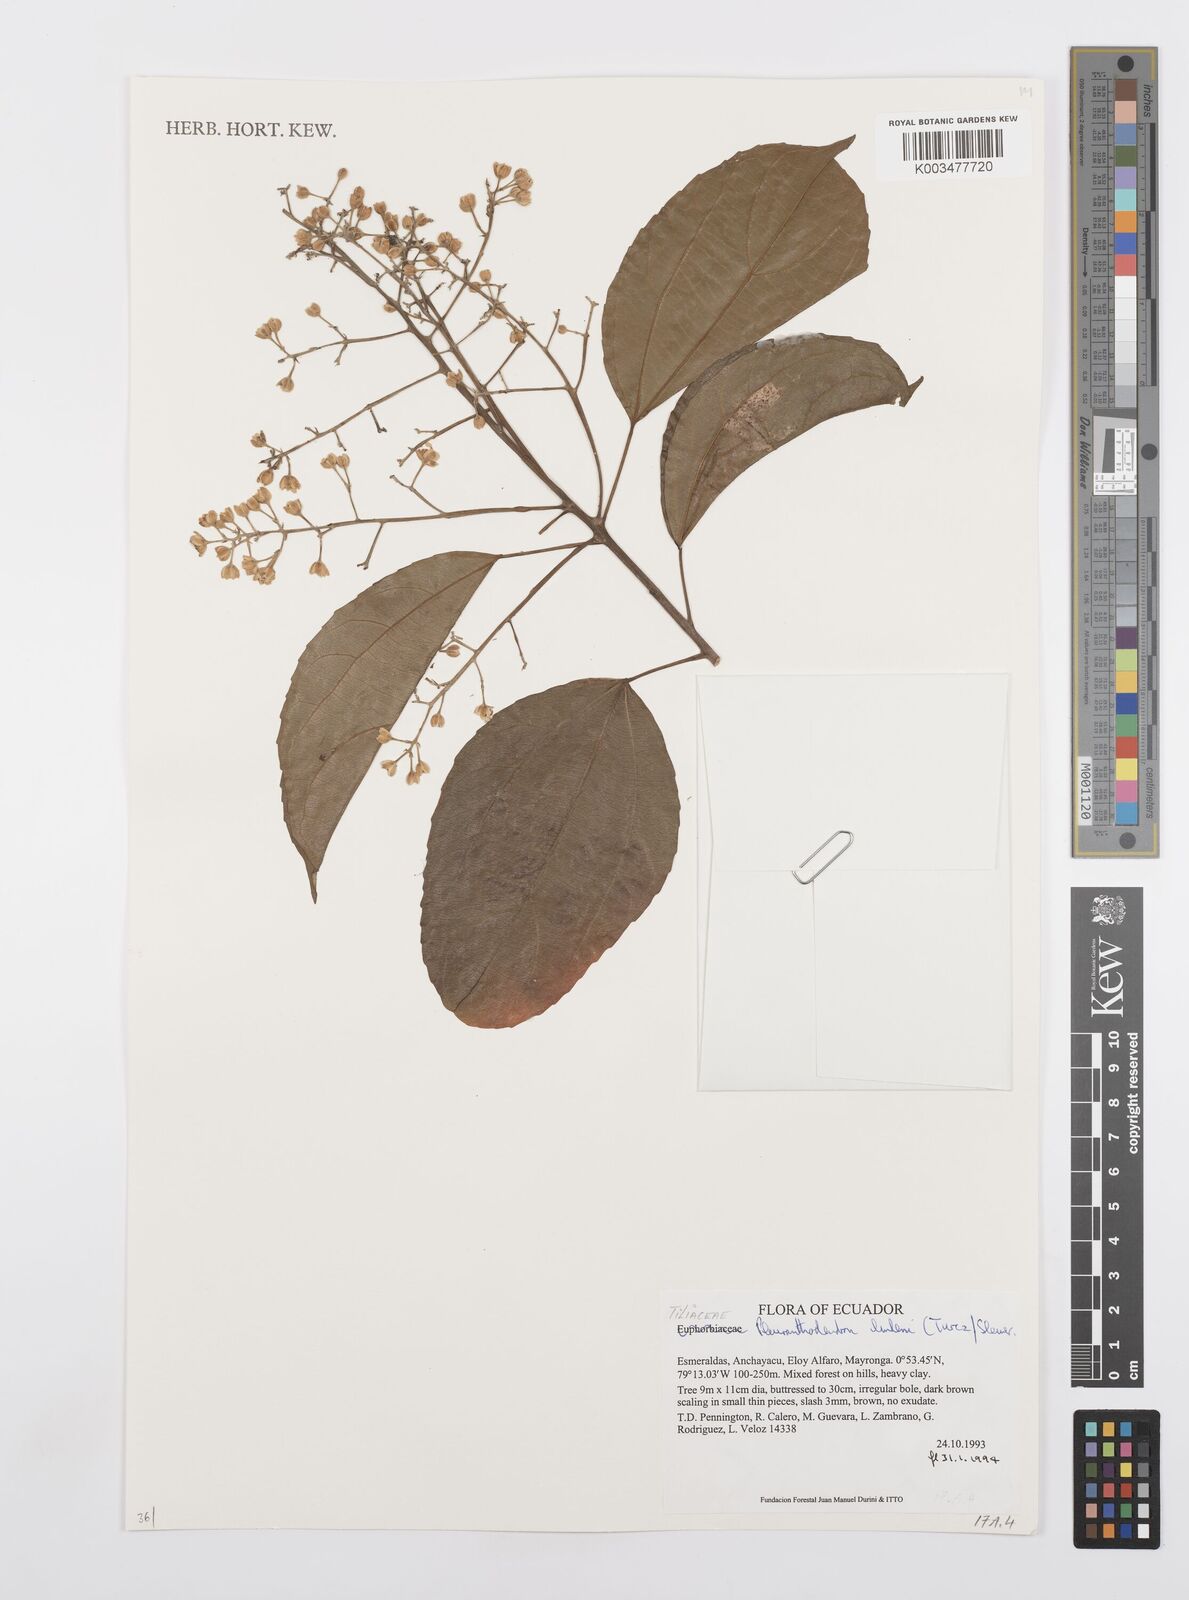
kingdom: Plantae
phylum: Tracheophyta
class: Magnoliopsida
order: Malpighiales
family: Salicaceae
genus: Pleuranthodendron
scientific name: Pleuranthodendron lindenii
